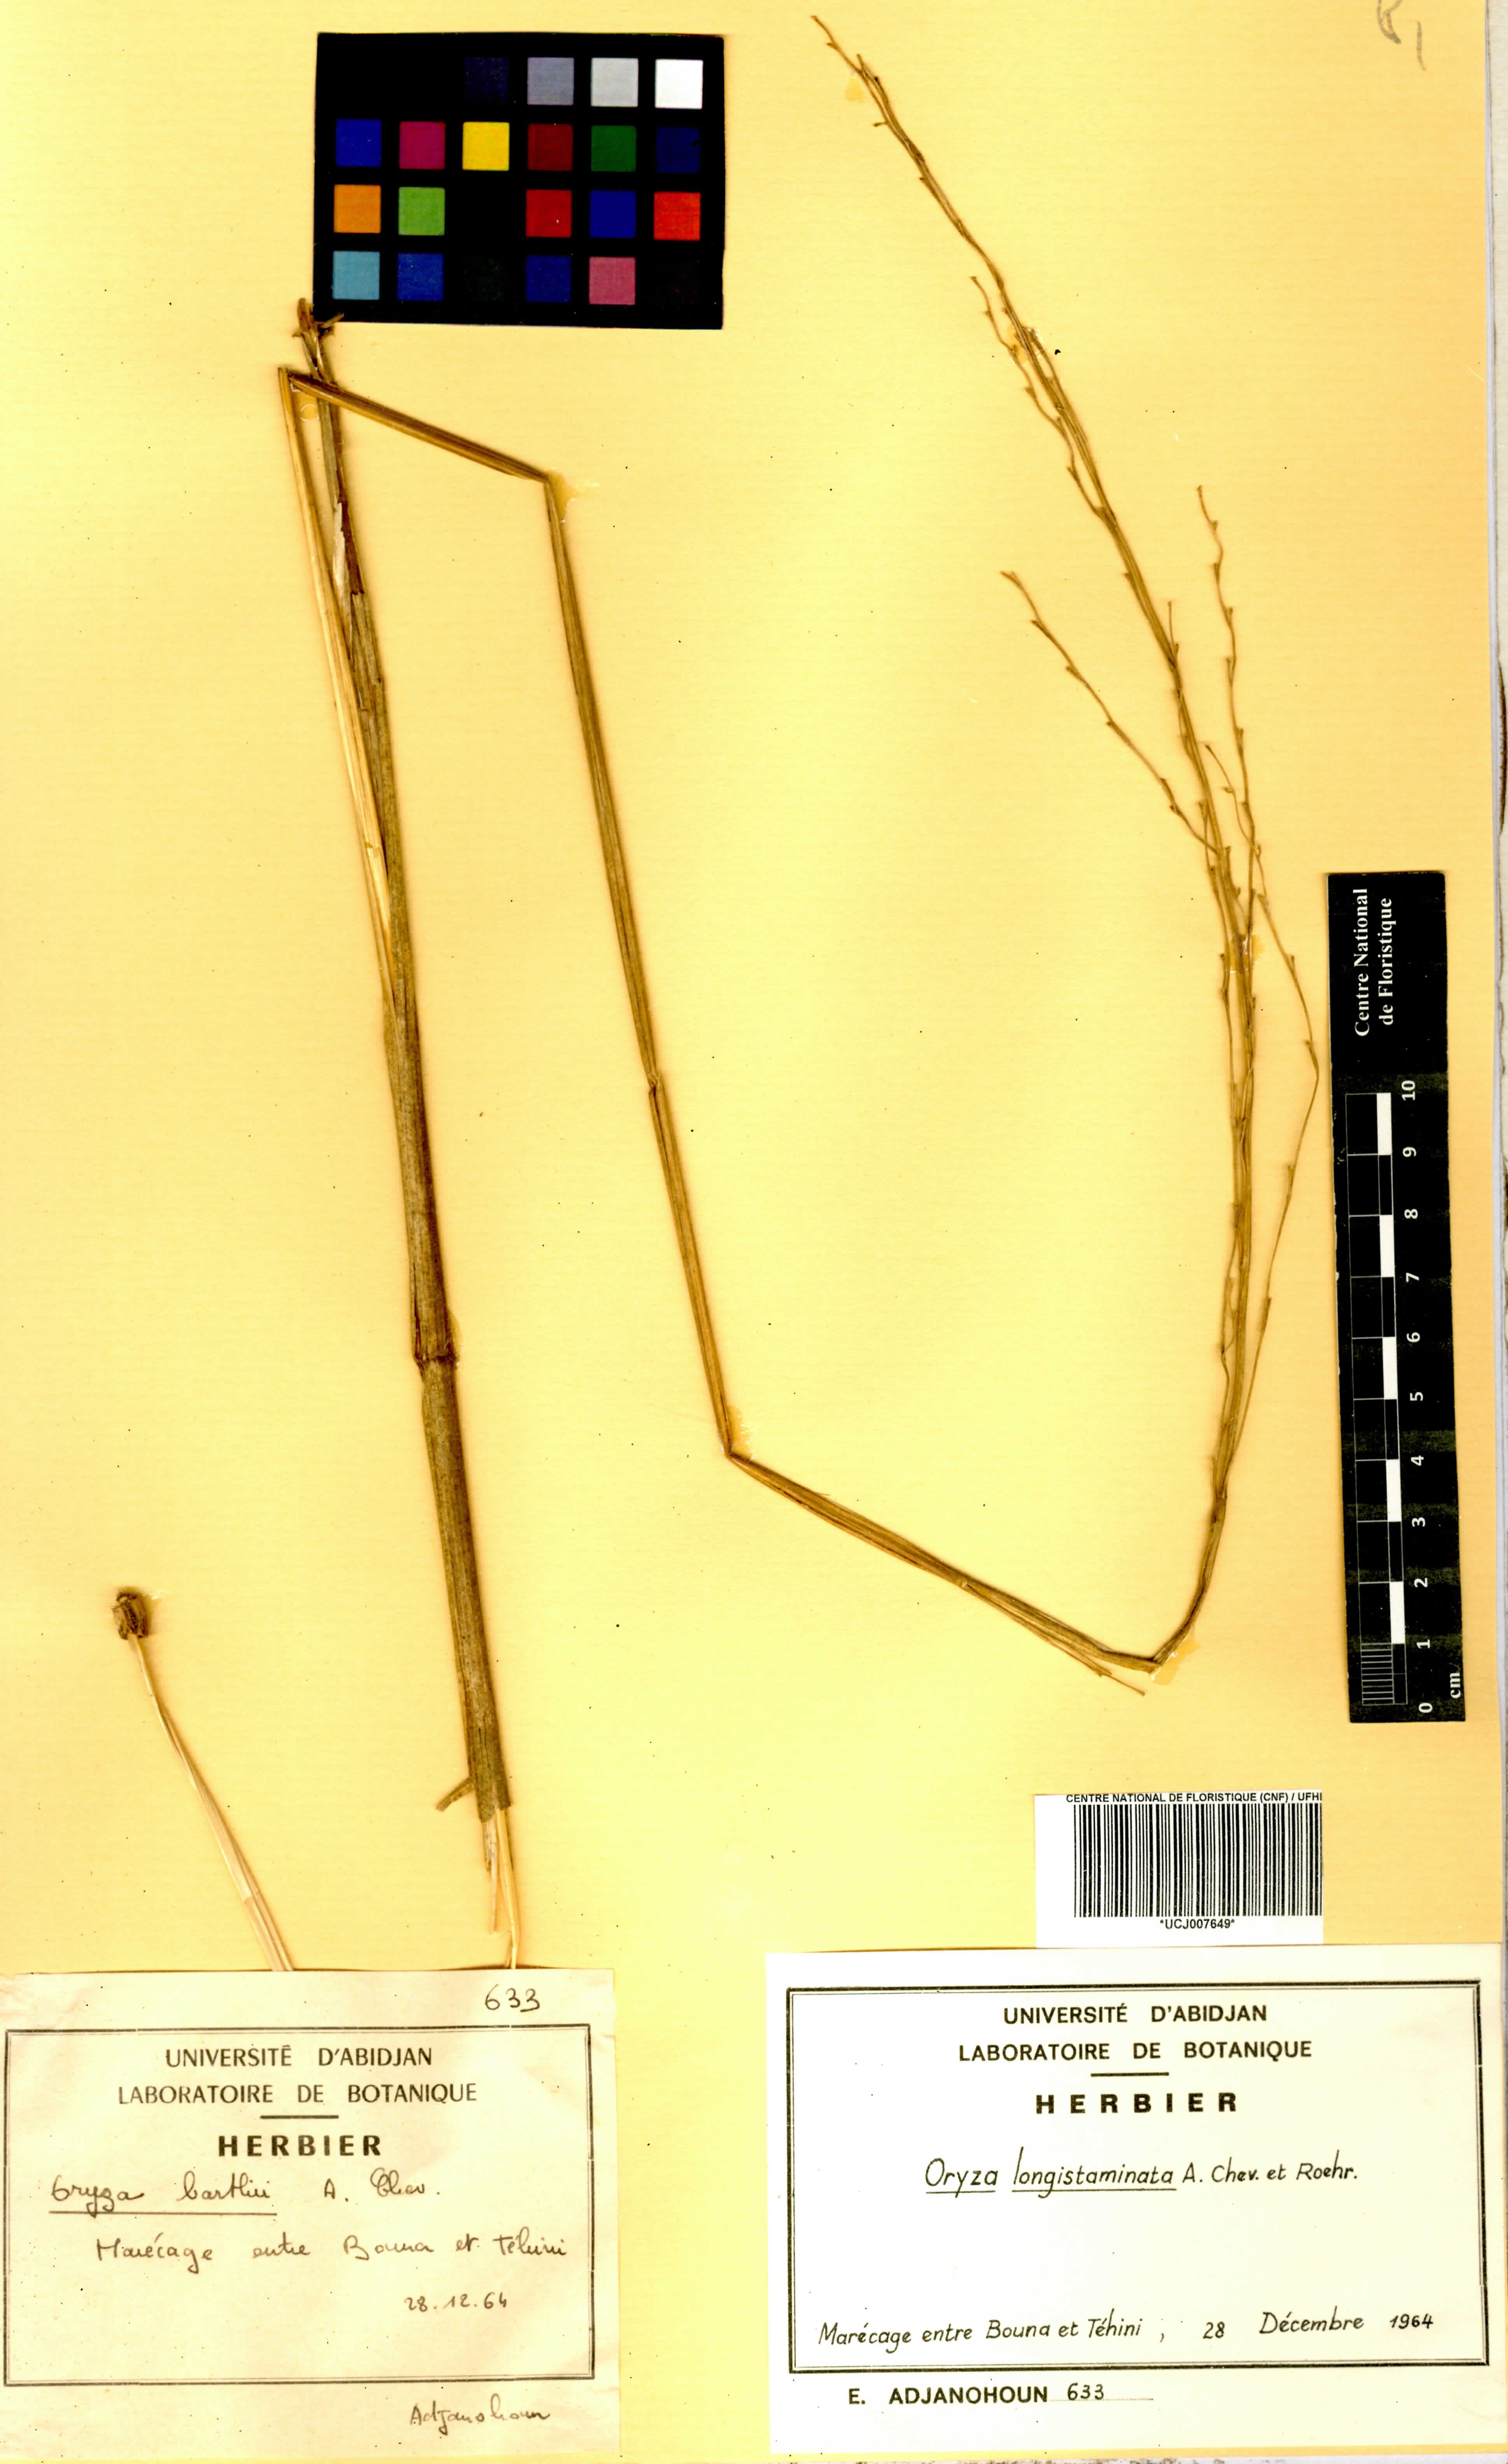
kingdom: Plantae
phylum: Tracheophyta
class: Liliopsida
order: Poales
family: Poaceae
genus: Oryza
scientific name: Oryza longistaminata
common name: Red rice
